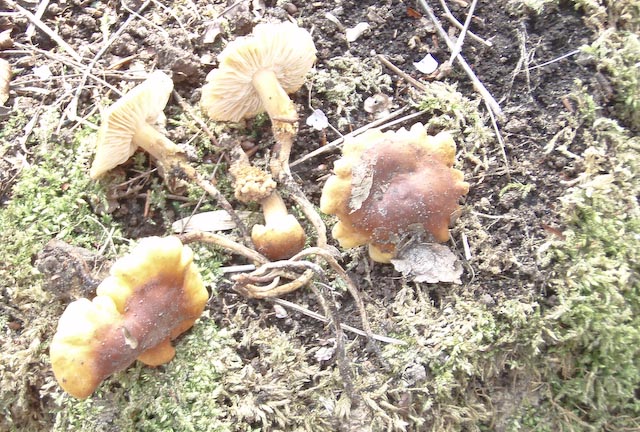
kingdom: Fungi
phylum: Basidiomycota
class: Agaricomycetes
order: Agaricales
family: Physalacriaceae
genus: Flammulina
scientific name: Flammulina fennae
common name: rodslående fløjlsfod
